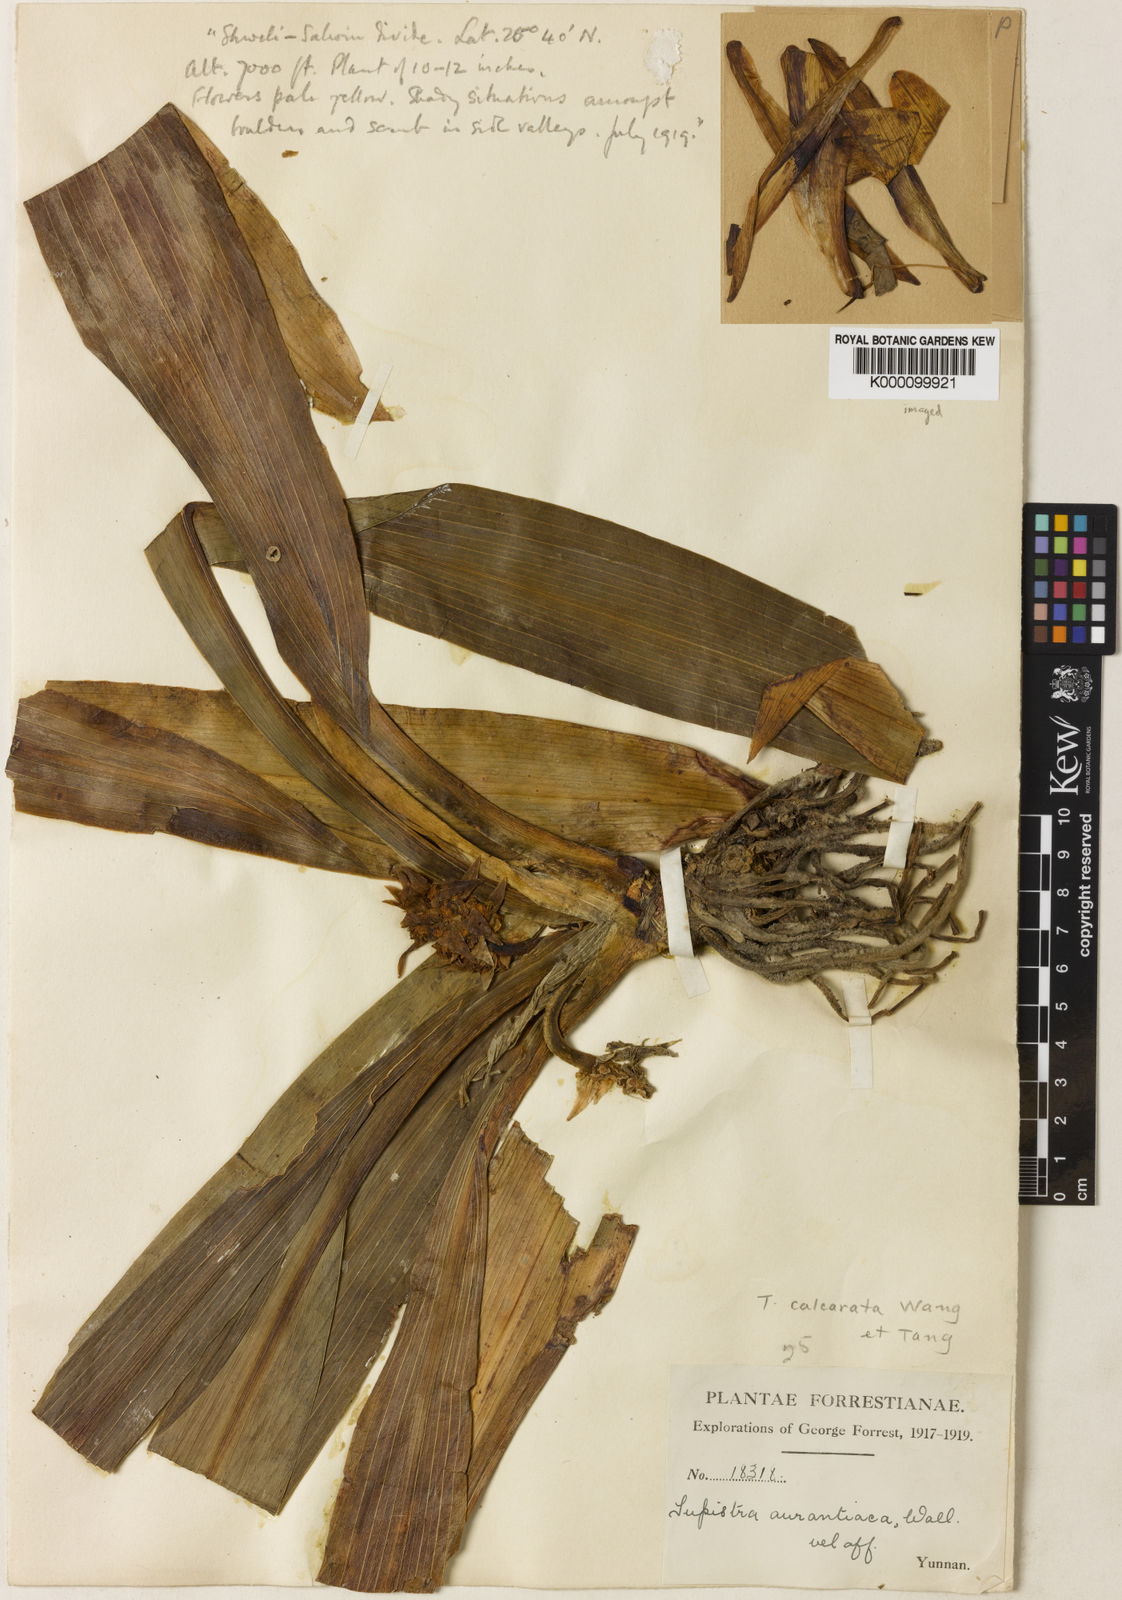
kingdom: Plantae
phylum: Tracheophyta
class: Liliopsida
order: Asparagales
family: Asparagaceae
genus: Tupistra
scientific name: Tupistra
